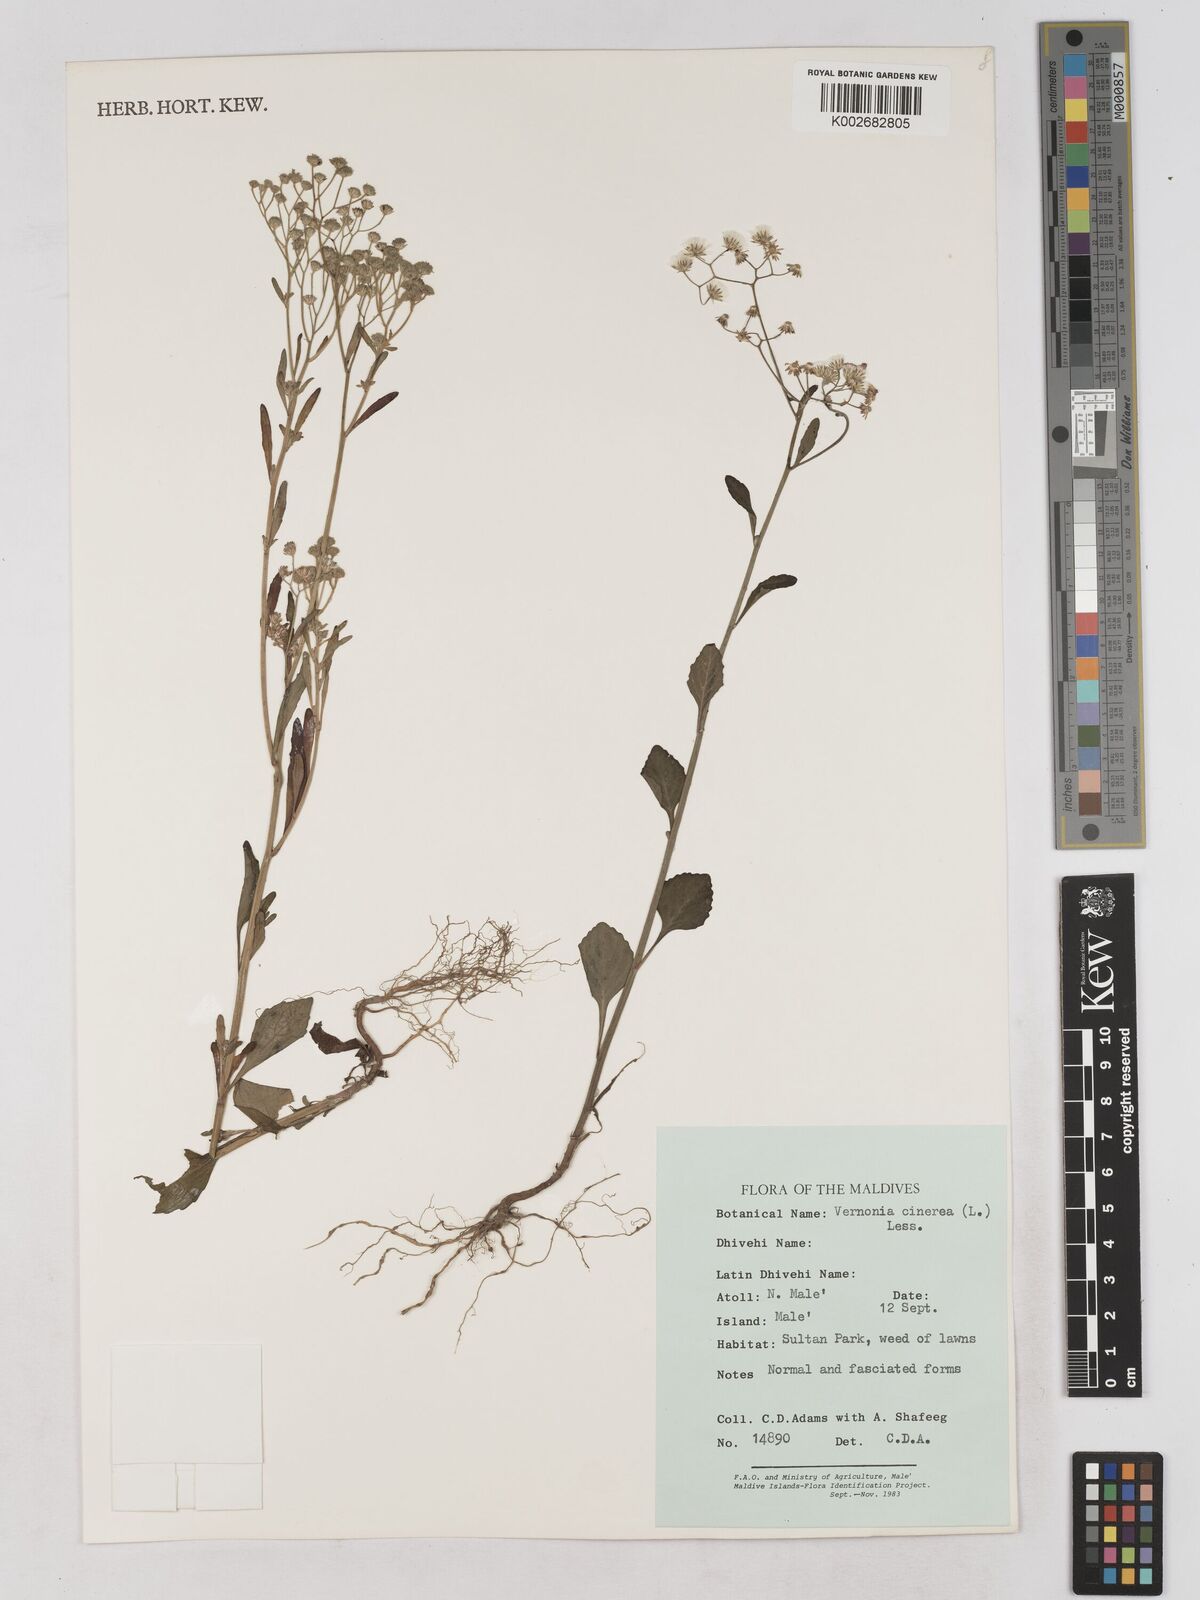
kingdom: Plantae
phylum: Tracheophyta
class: Magnoliopsida
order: Asterales
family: Asteraceae
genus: Cyanthillium
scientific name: Cyanthillium cinereum
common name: Little ironweed
